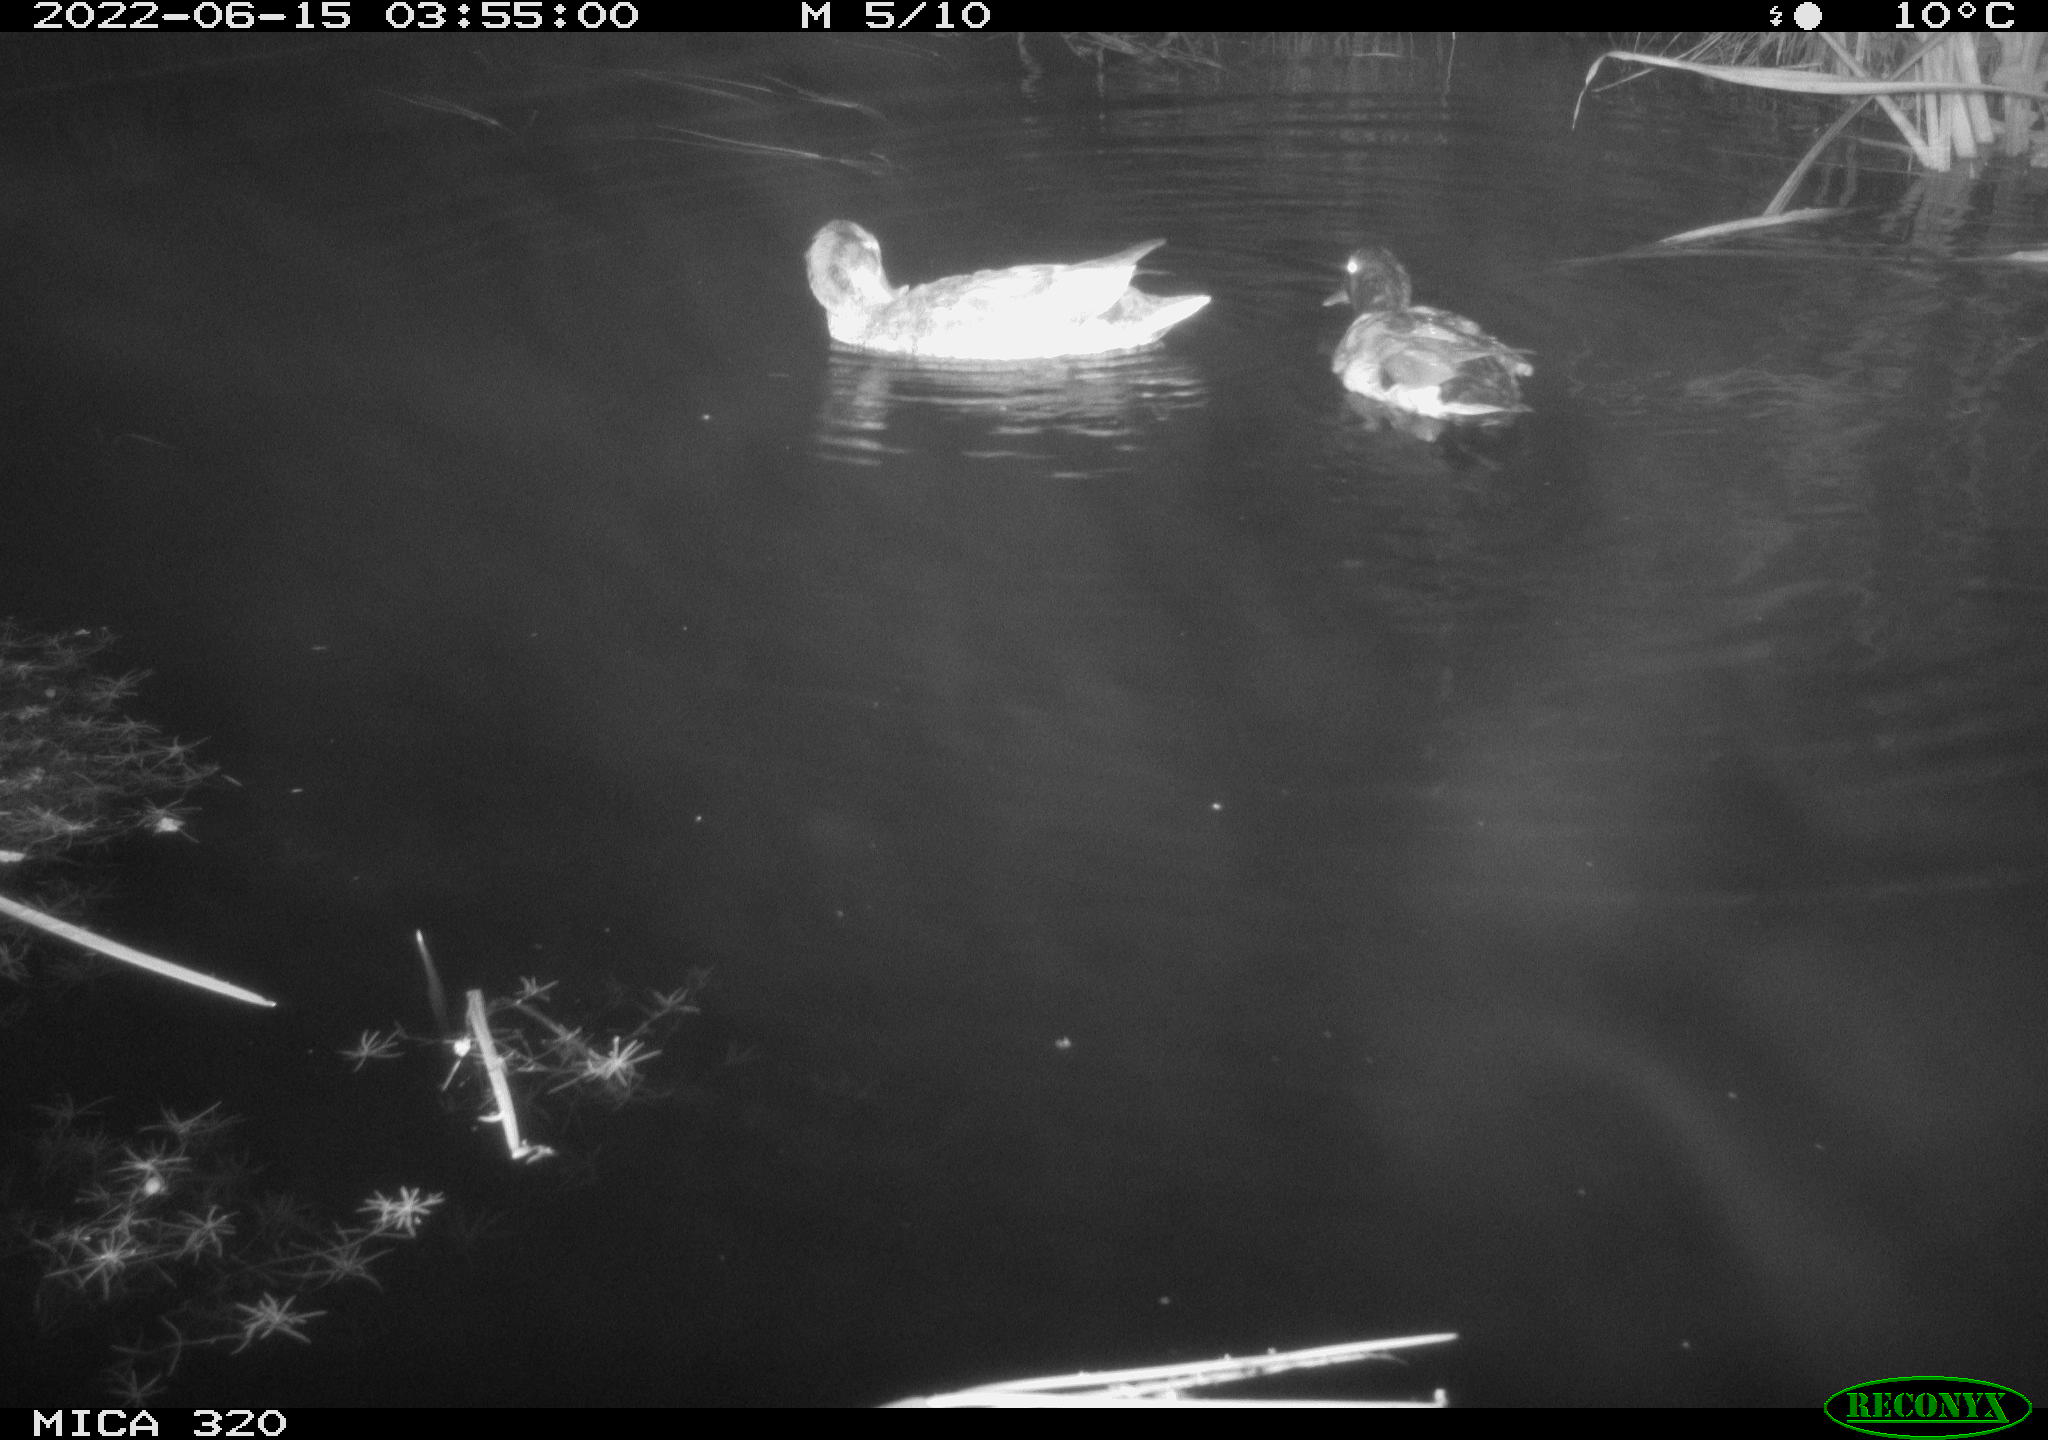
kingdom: Animalia
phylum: Chordata
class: Aves
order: Anseriformes
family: Anatidae
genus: Mareca
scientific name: Mareca strepera
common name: Gadwall
